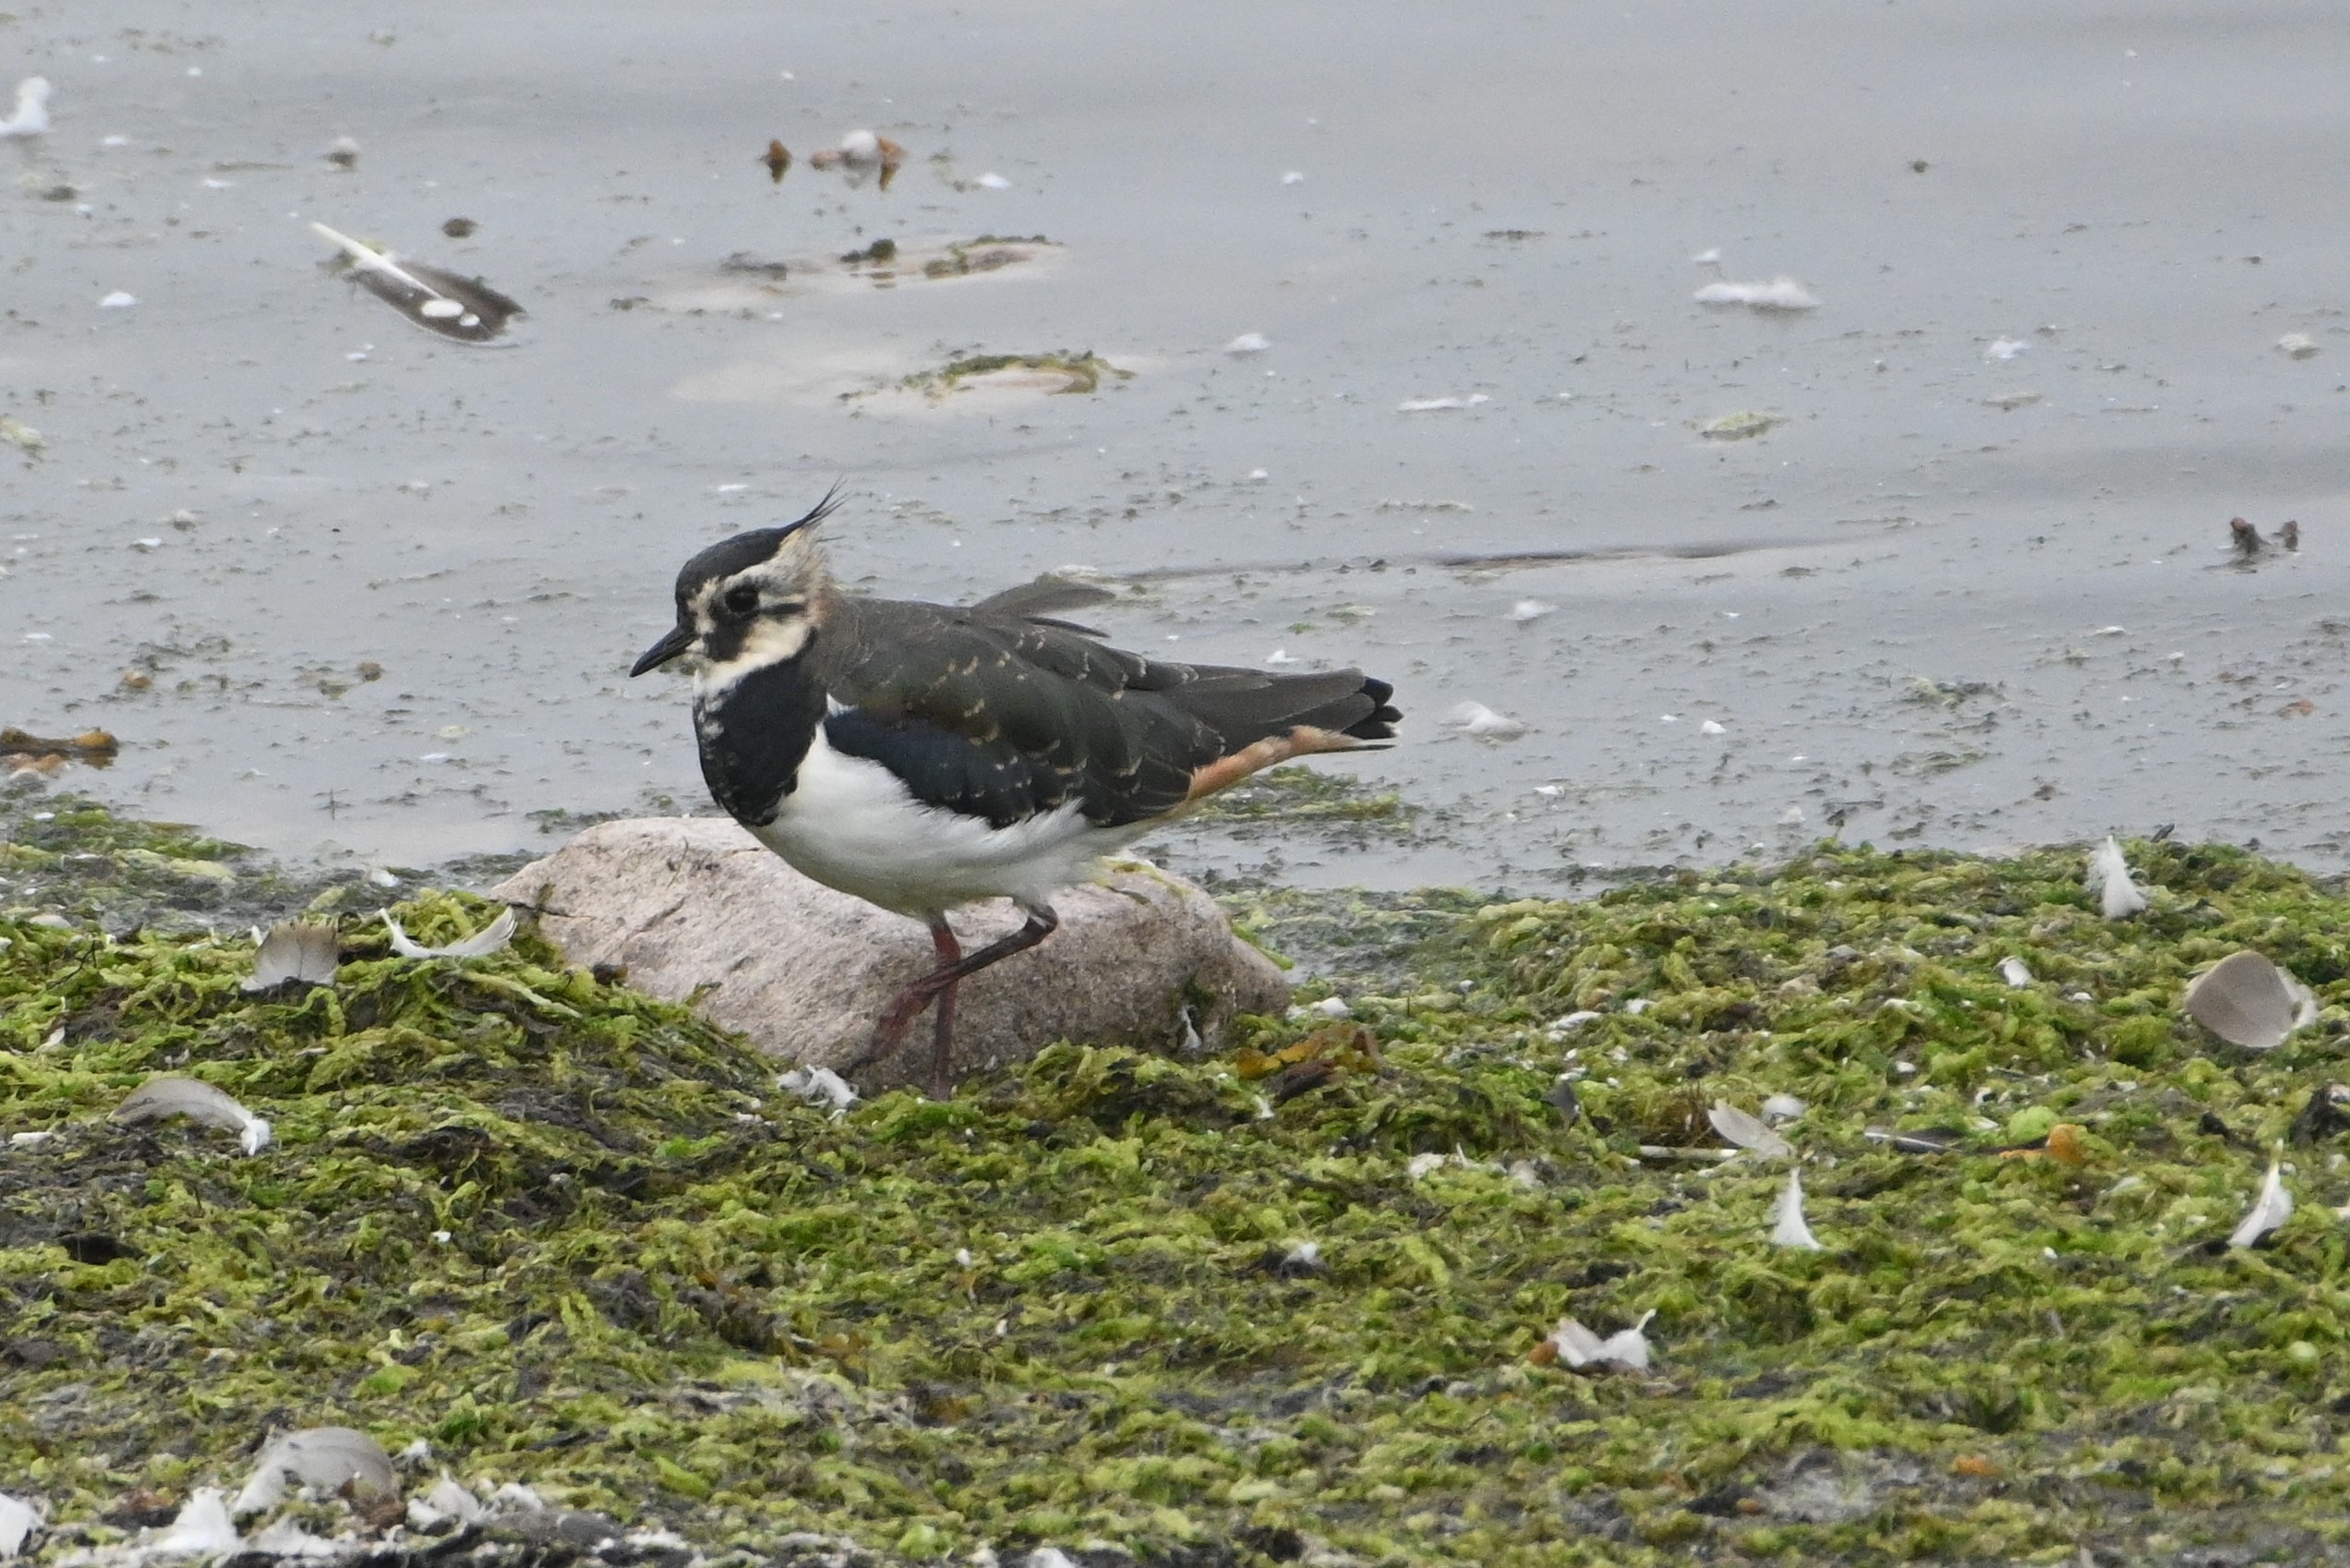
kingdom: Animalia
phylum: Chordata
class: Aves
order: Charadriiformes
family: Charadriidae
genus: Vanellus
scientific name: Vanellus vanellus
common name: Vibe
